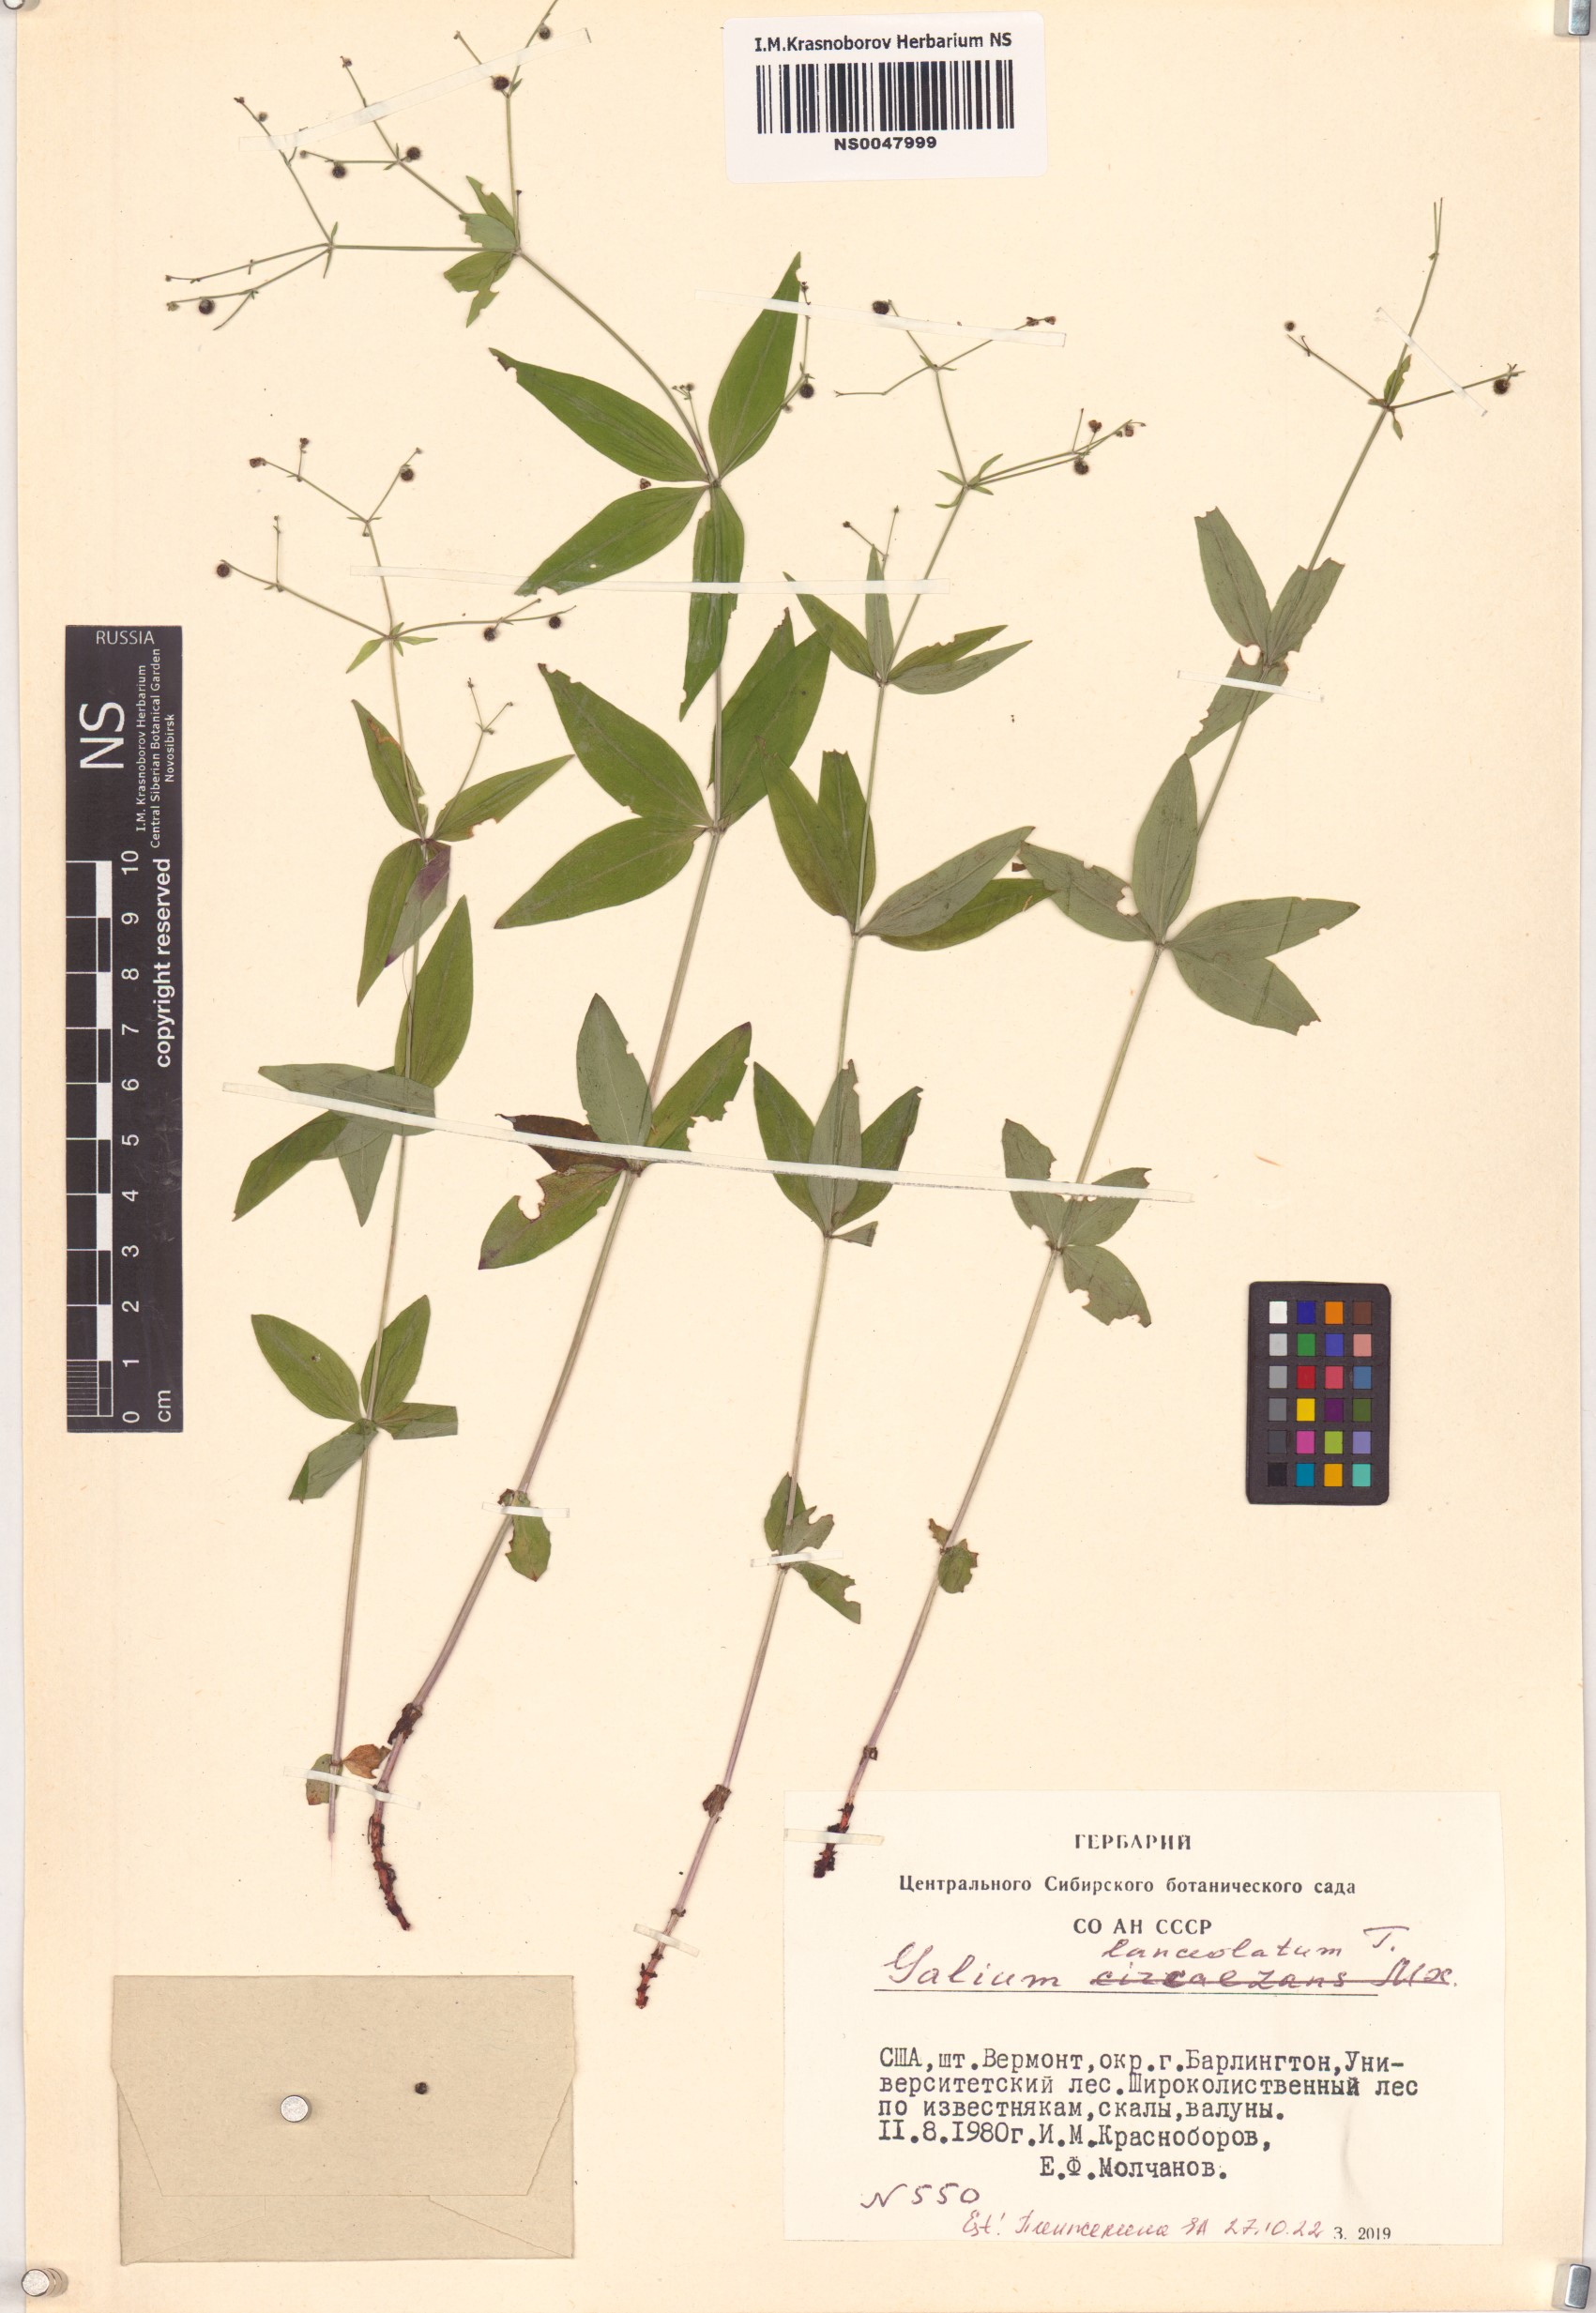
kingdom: Plantae
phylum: Tracheophyta
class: Magnoliopsida
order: Gentianales
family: Rubiaceae
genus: Galium
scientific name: Galium lanceolatum
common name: Lance-leaved wild licorice
